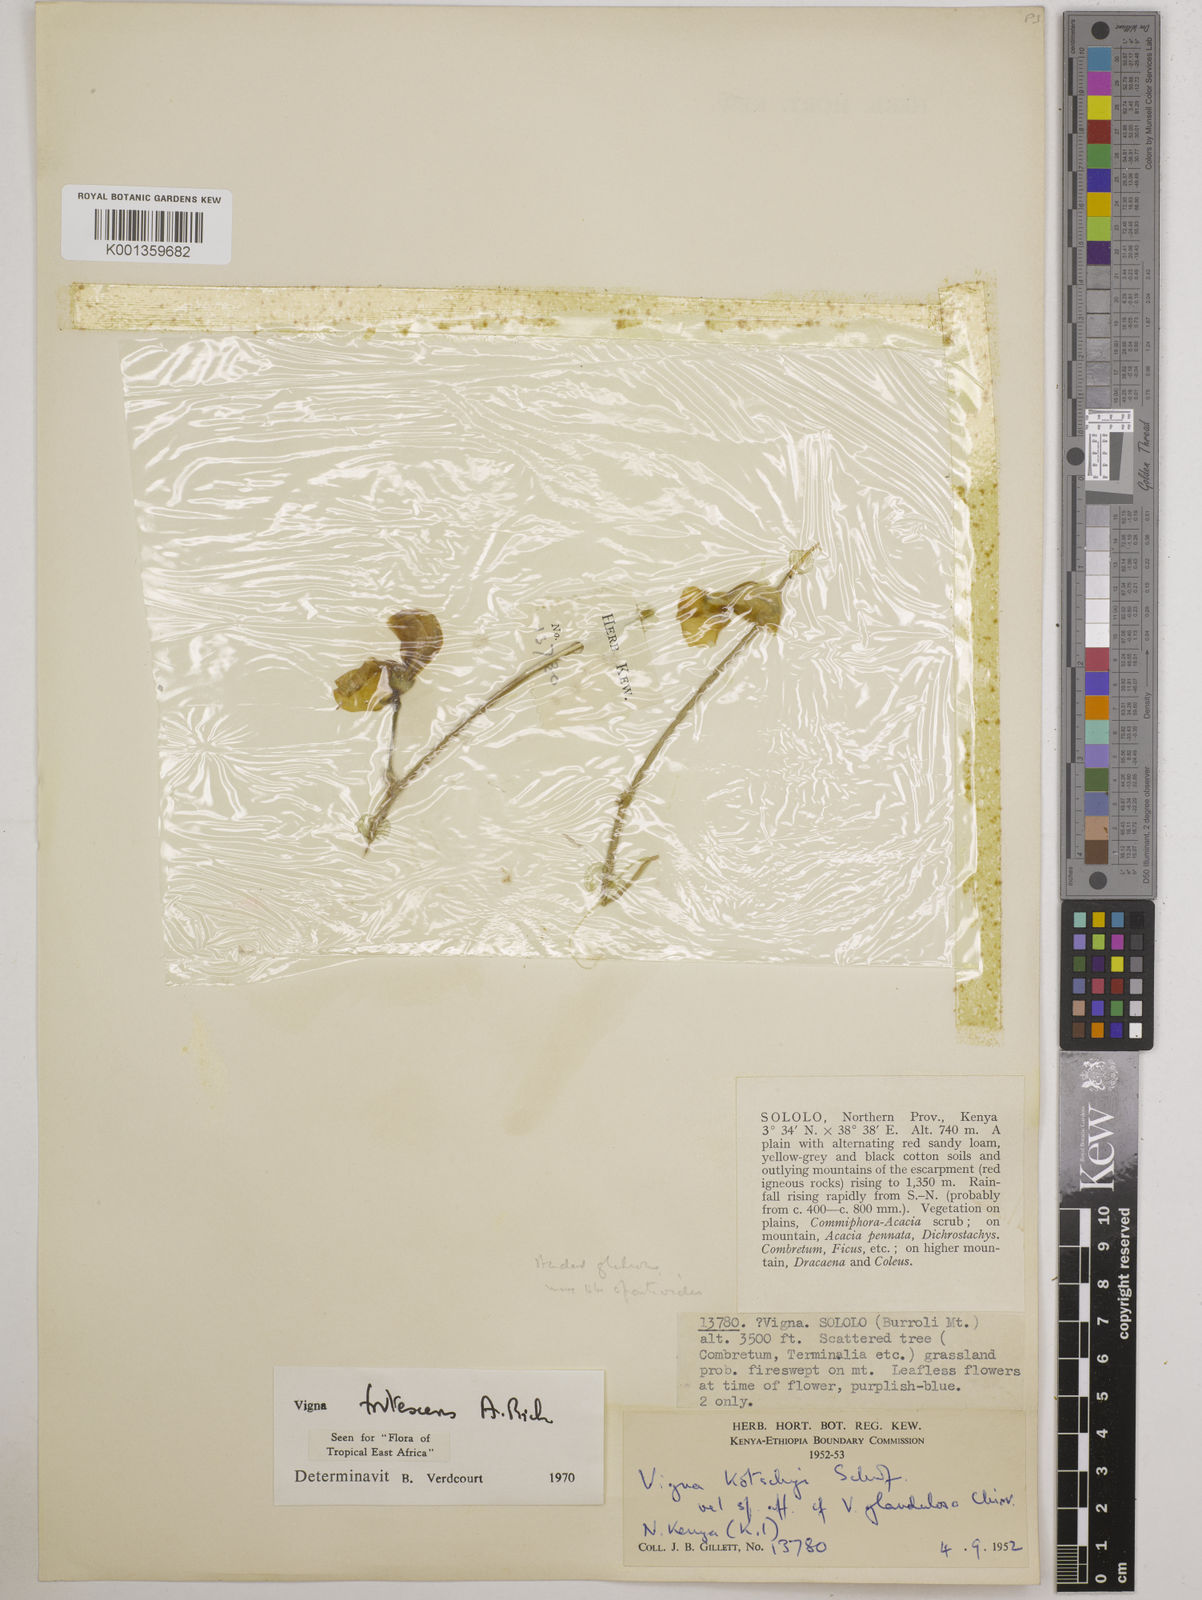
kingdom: Plantae
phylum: Tracheophyta
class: Magnoliopsida
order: Fabales
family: Fabaceae
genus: Vigna
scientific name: Vigna frutescens
